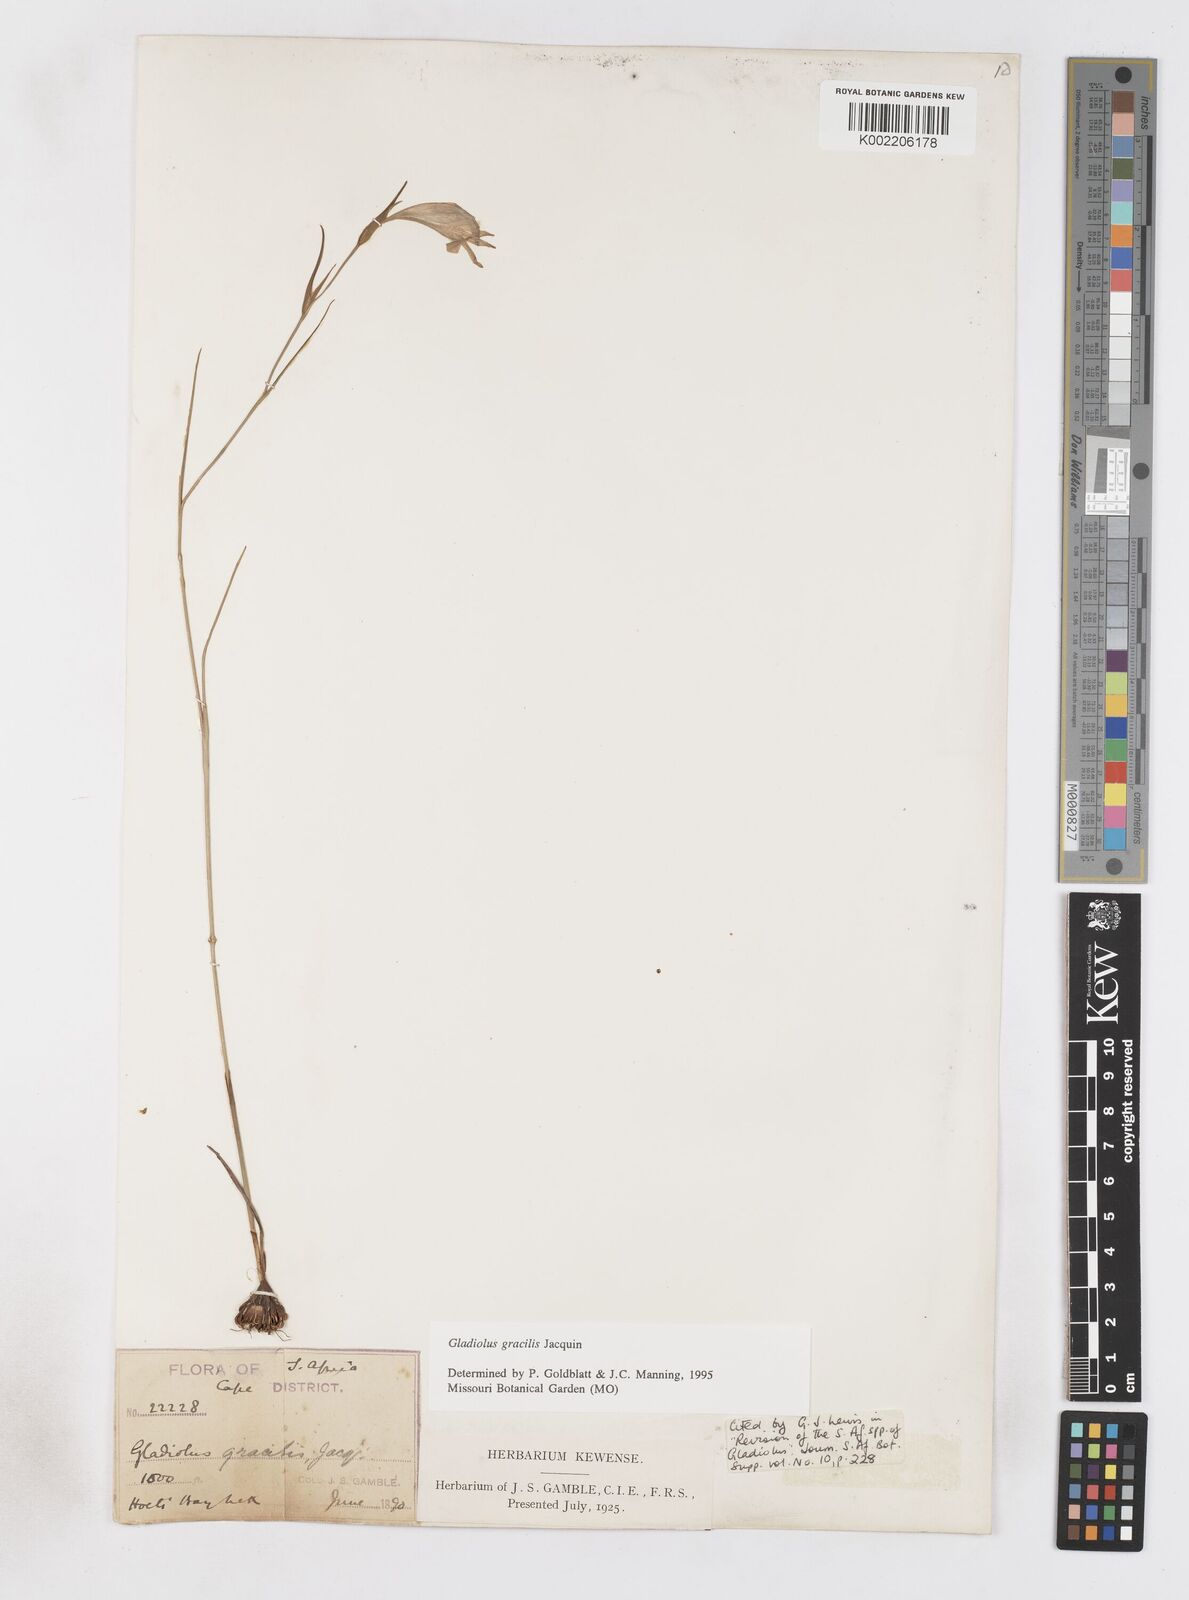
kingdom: Plantae
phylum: Tracheophyta
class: Liliopsida
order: Asparagales
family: Iridaceae
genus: Gladiolus
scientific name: Gladiolus gracilis
